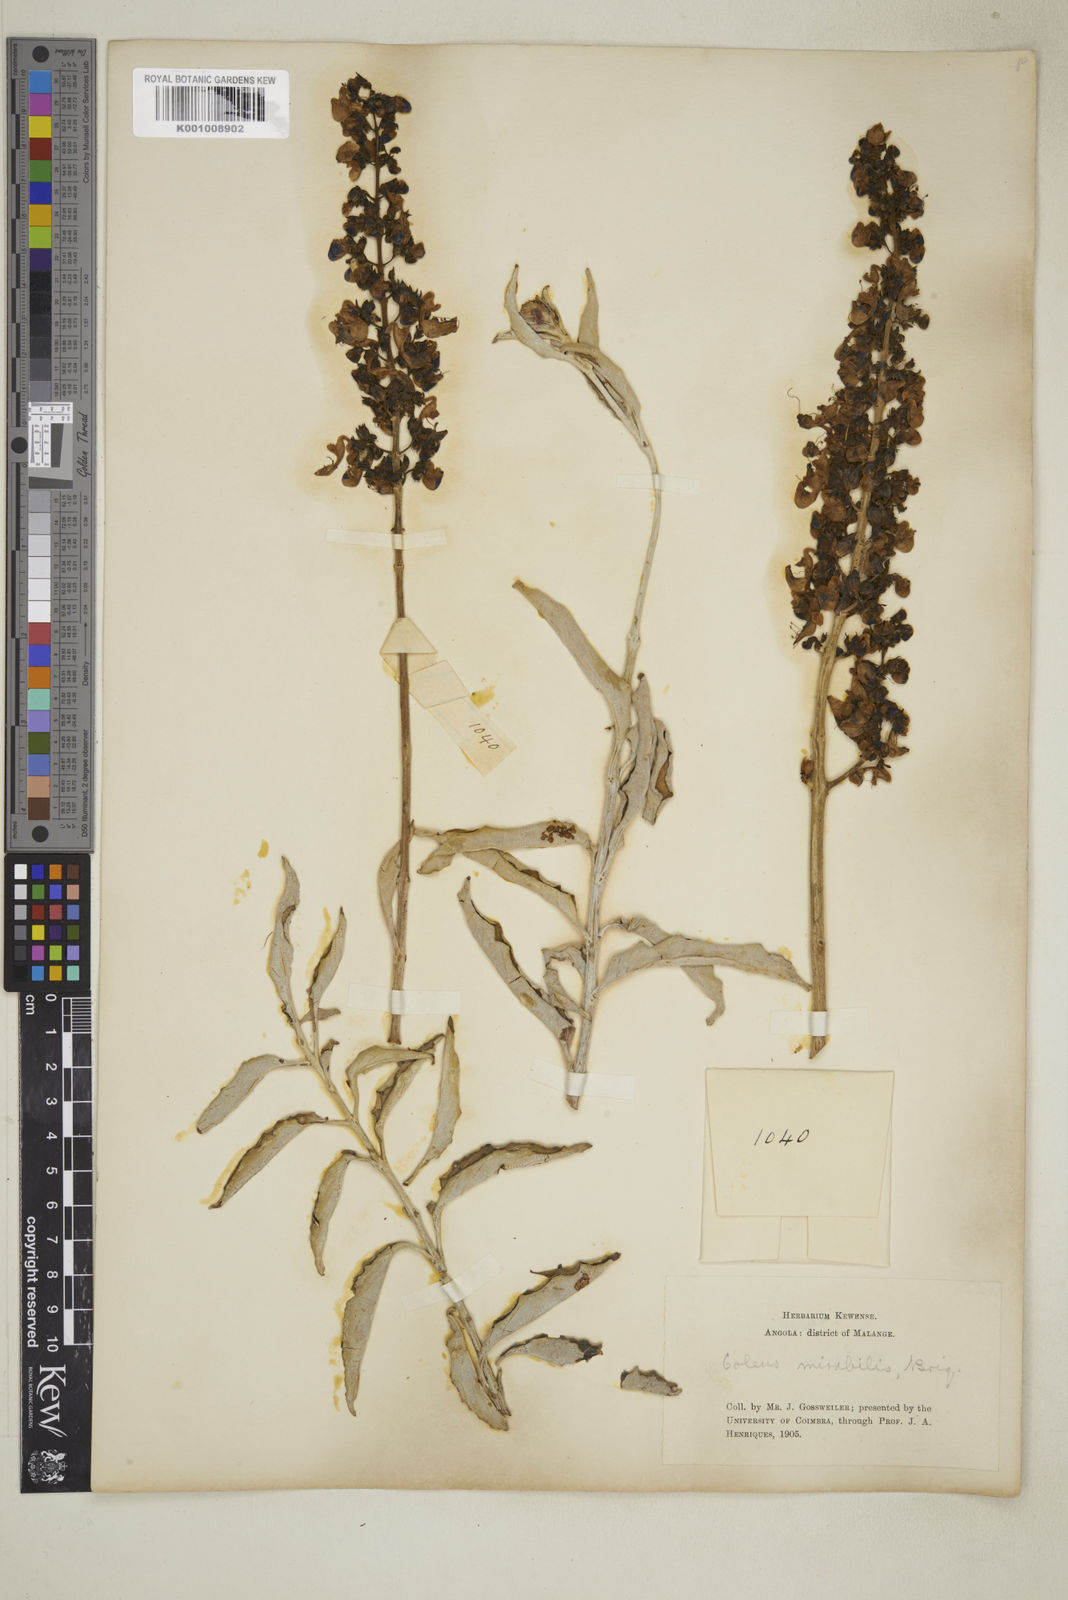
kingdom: Plantae
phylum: Tracheophyta
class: Magnoliopsida
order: Lamiales
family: Lamiaceae
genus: Plectranthus
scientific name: Plectranthus
